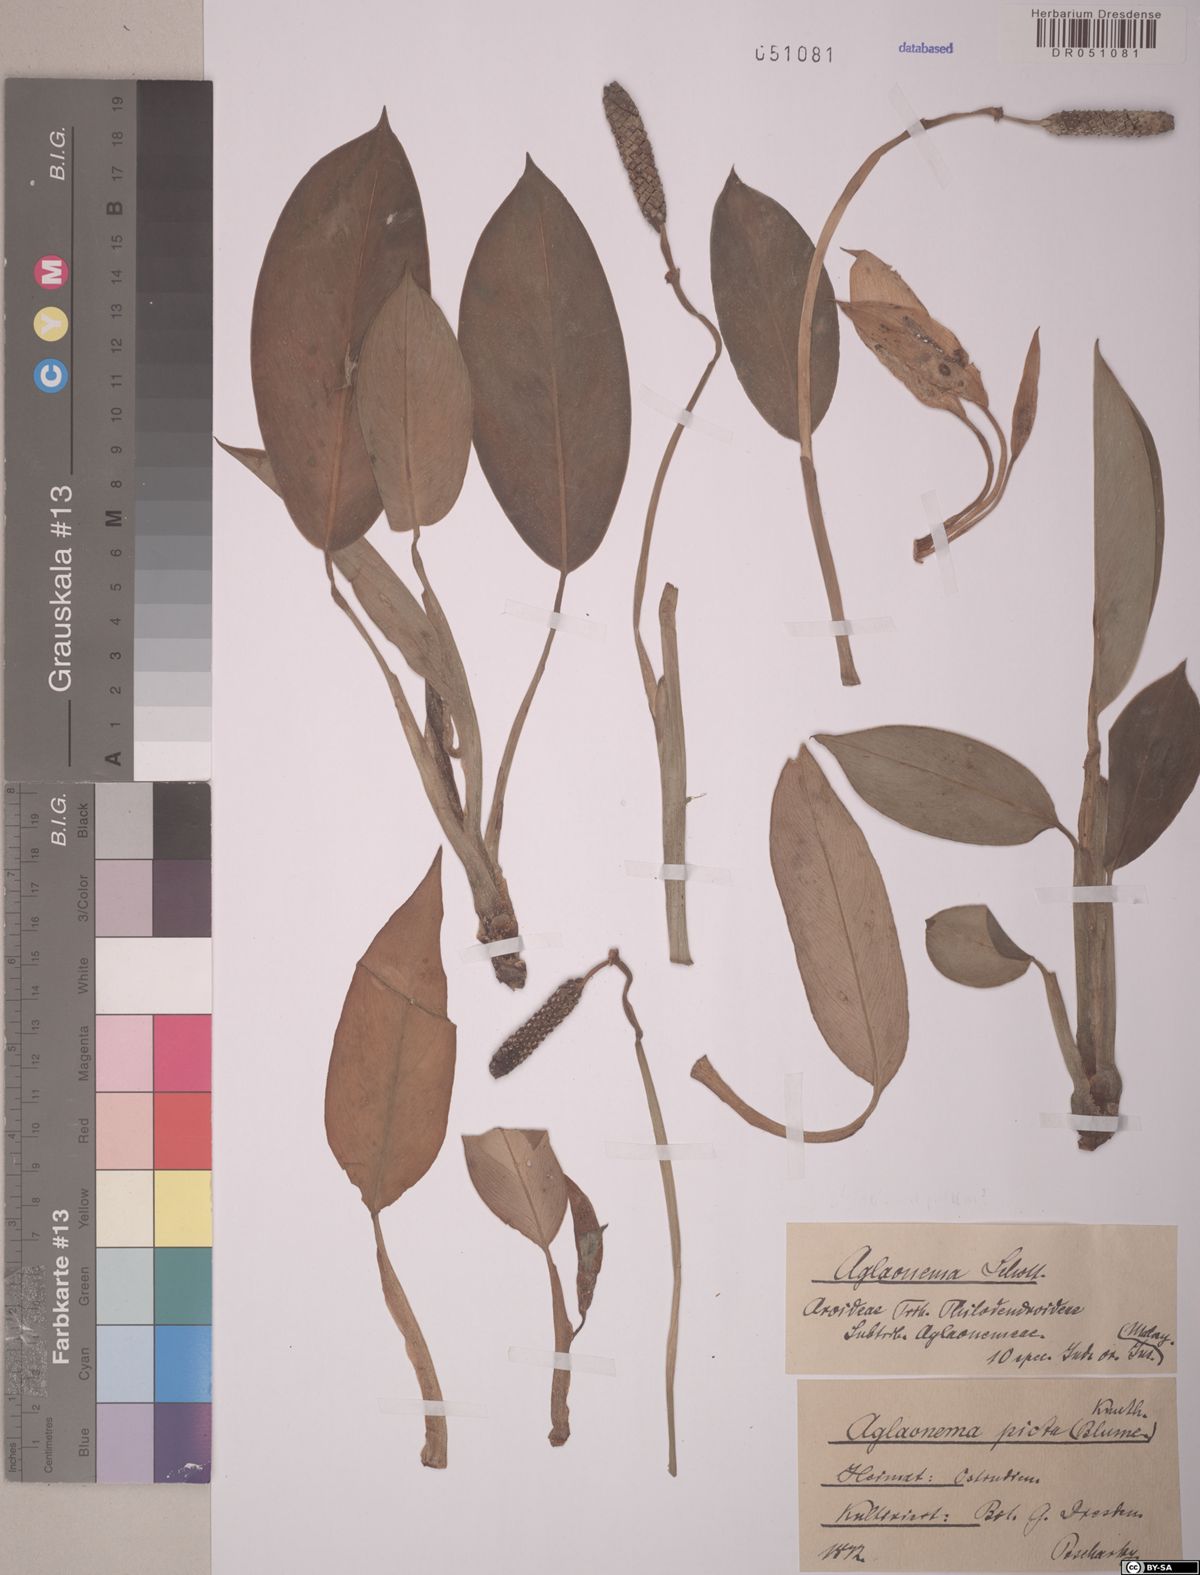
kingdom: Plantae
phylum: Tracheophyta
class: Liliopsida
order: Alismatales
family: Araceae
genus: Aglaonema
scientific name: Aglaonema pictum
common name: Aglaonema aroid
